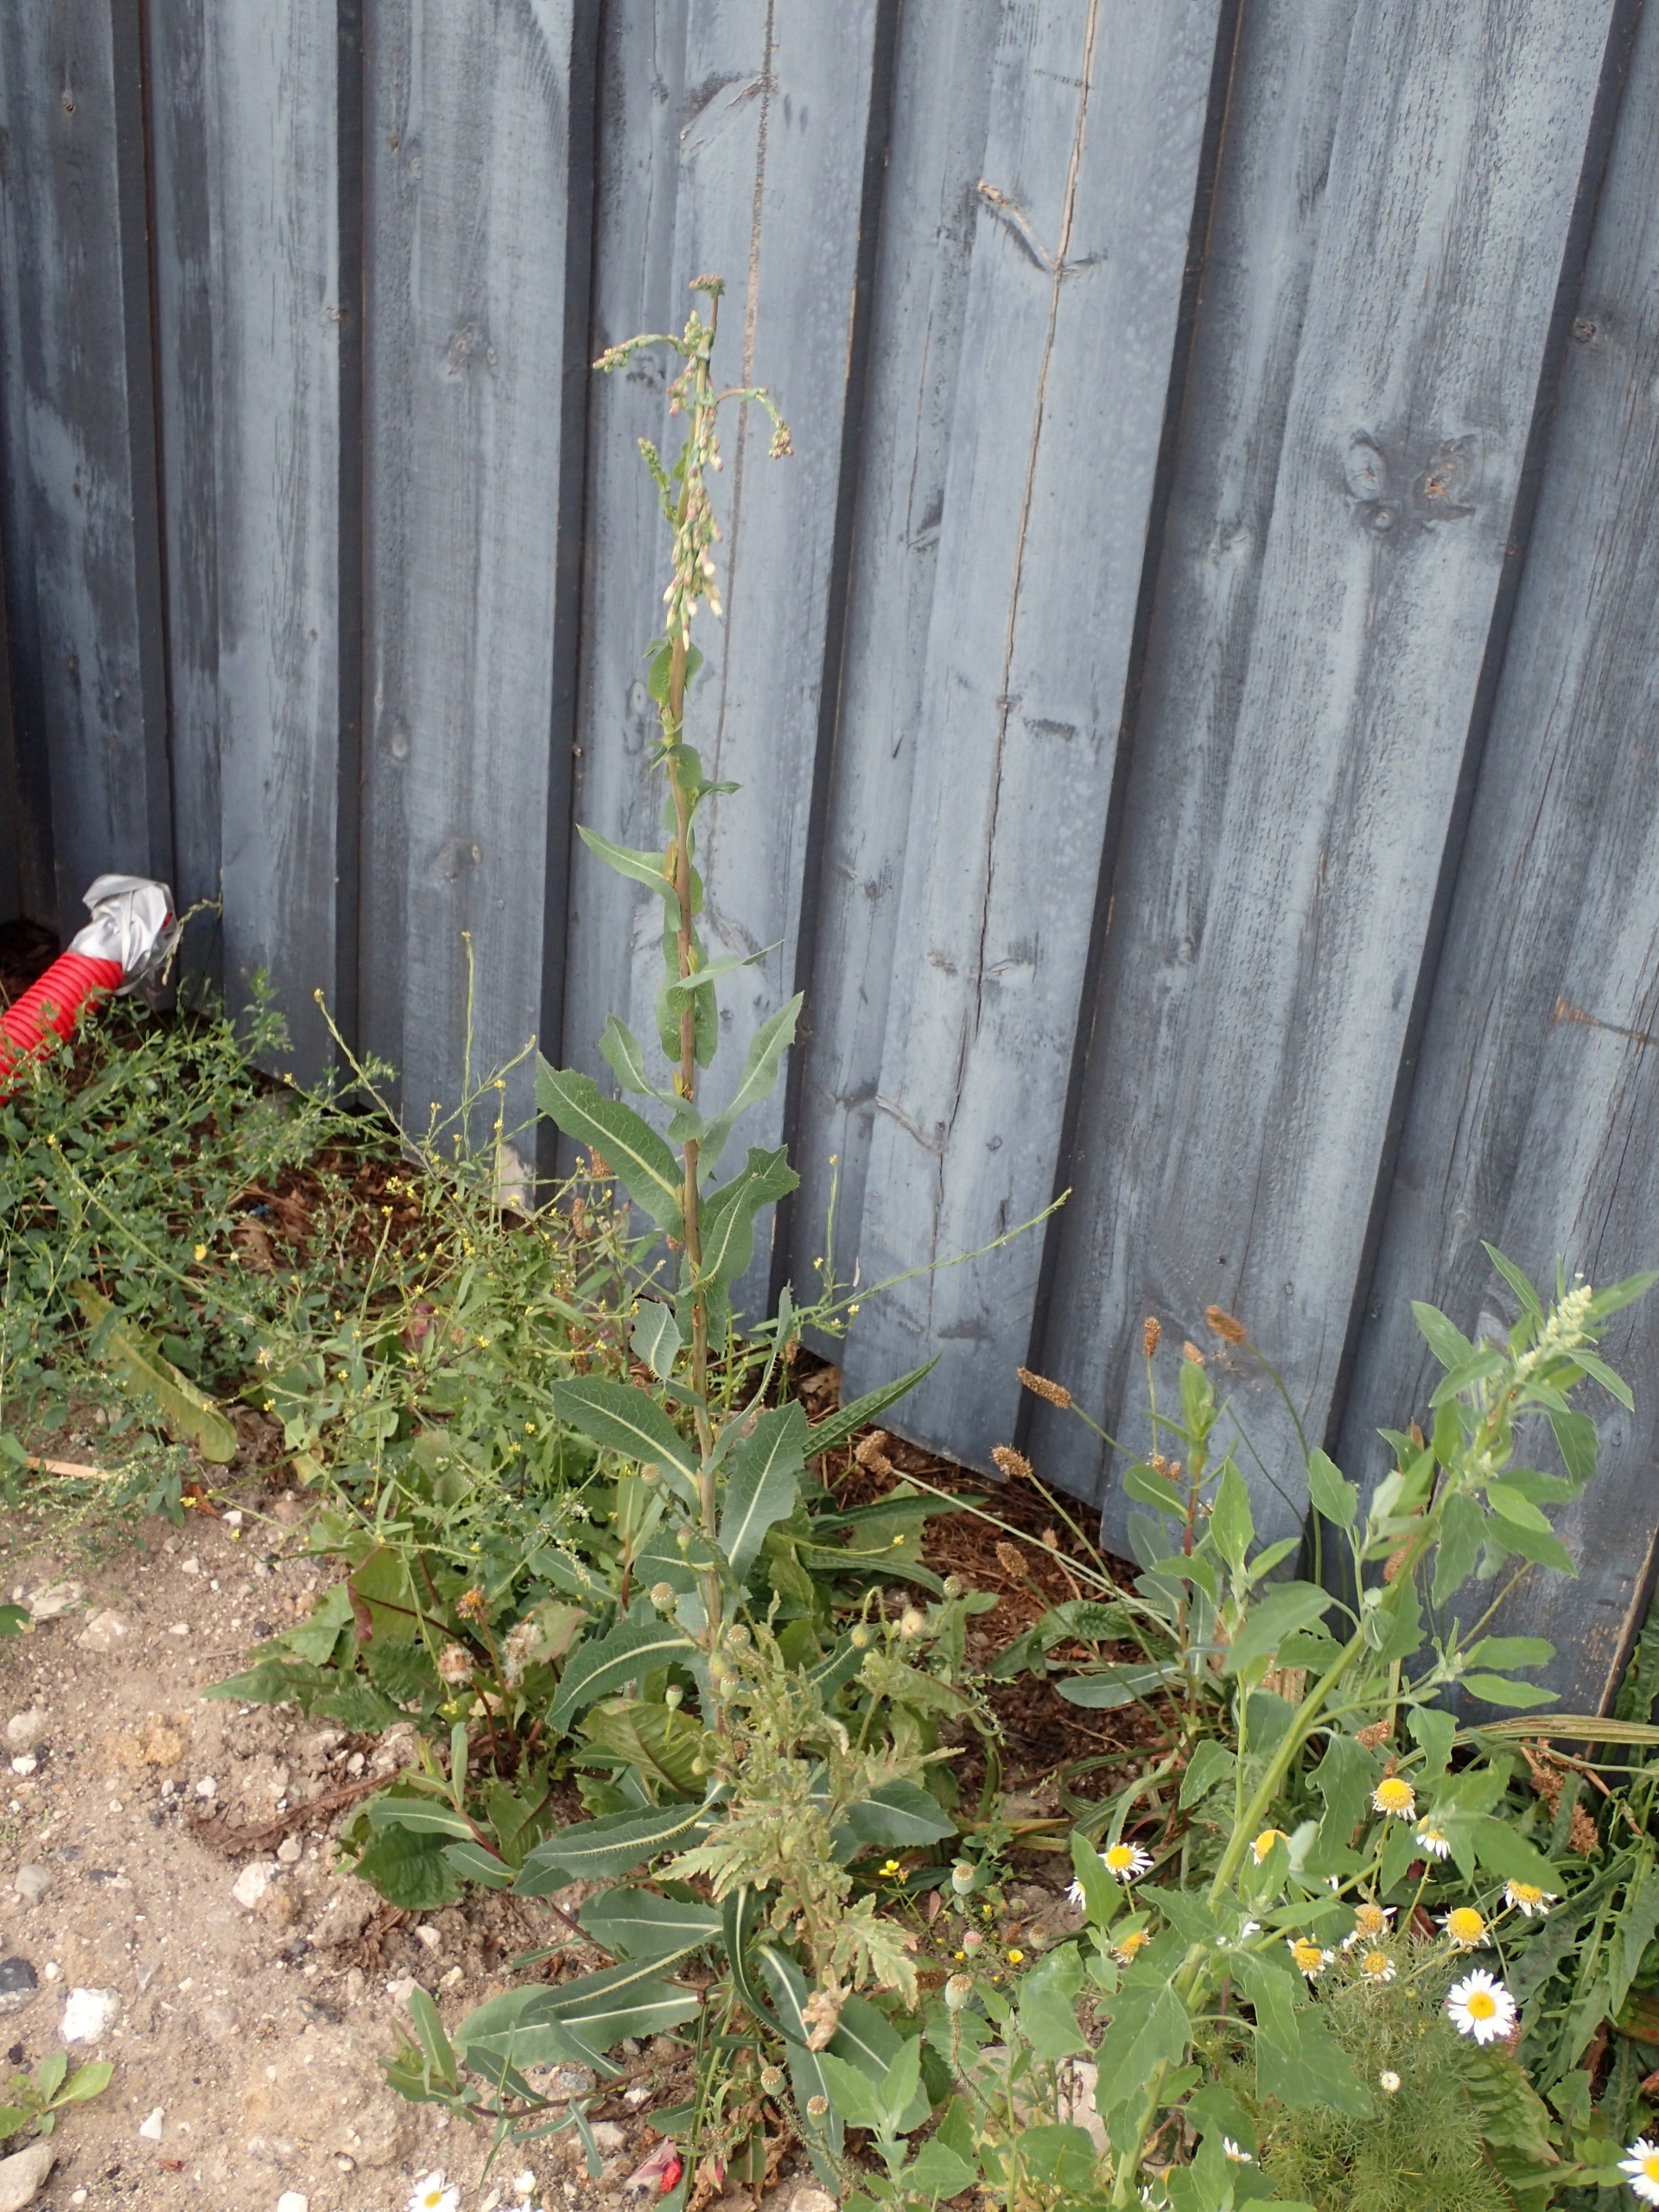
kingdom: Plantae
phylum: Tracheophyta
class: Magnoliopsida
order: Asterales
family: Asteraceae
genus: Lactuca
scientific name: Lactuca serriola
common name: Tornet salat
